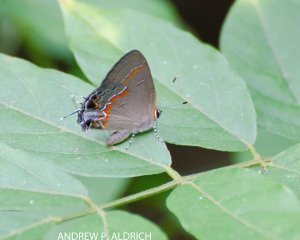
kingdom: Animalia
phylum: Arthropoda
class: Insecta
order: Lepidoptera
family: Lycaenidae
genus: Fixsenia
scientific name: Fixsenia favonius
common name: Oak Hairstreak
